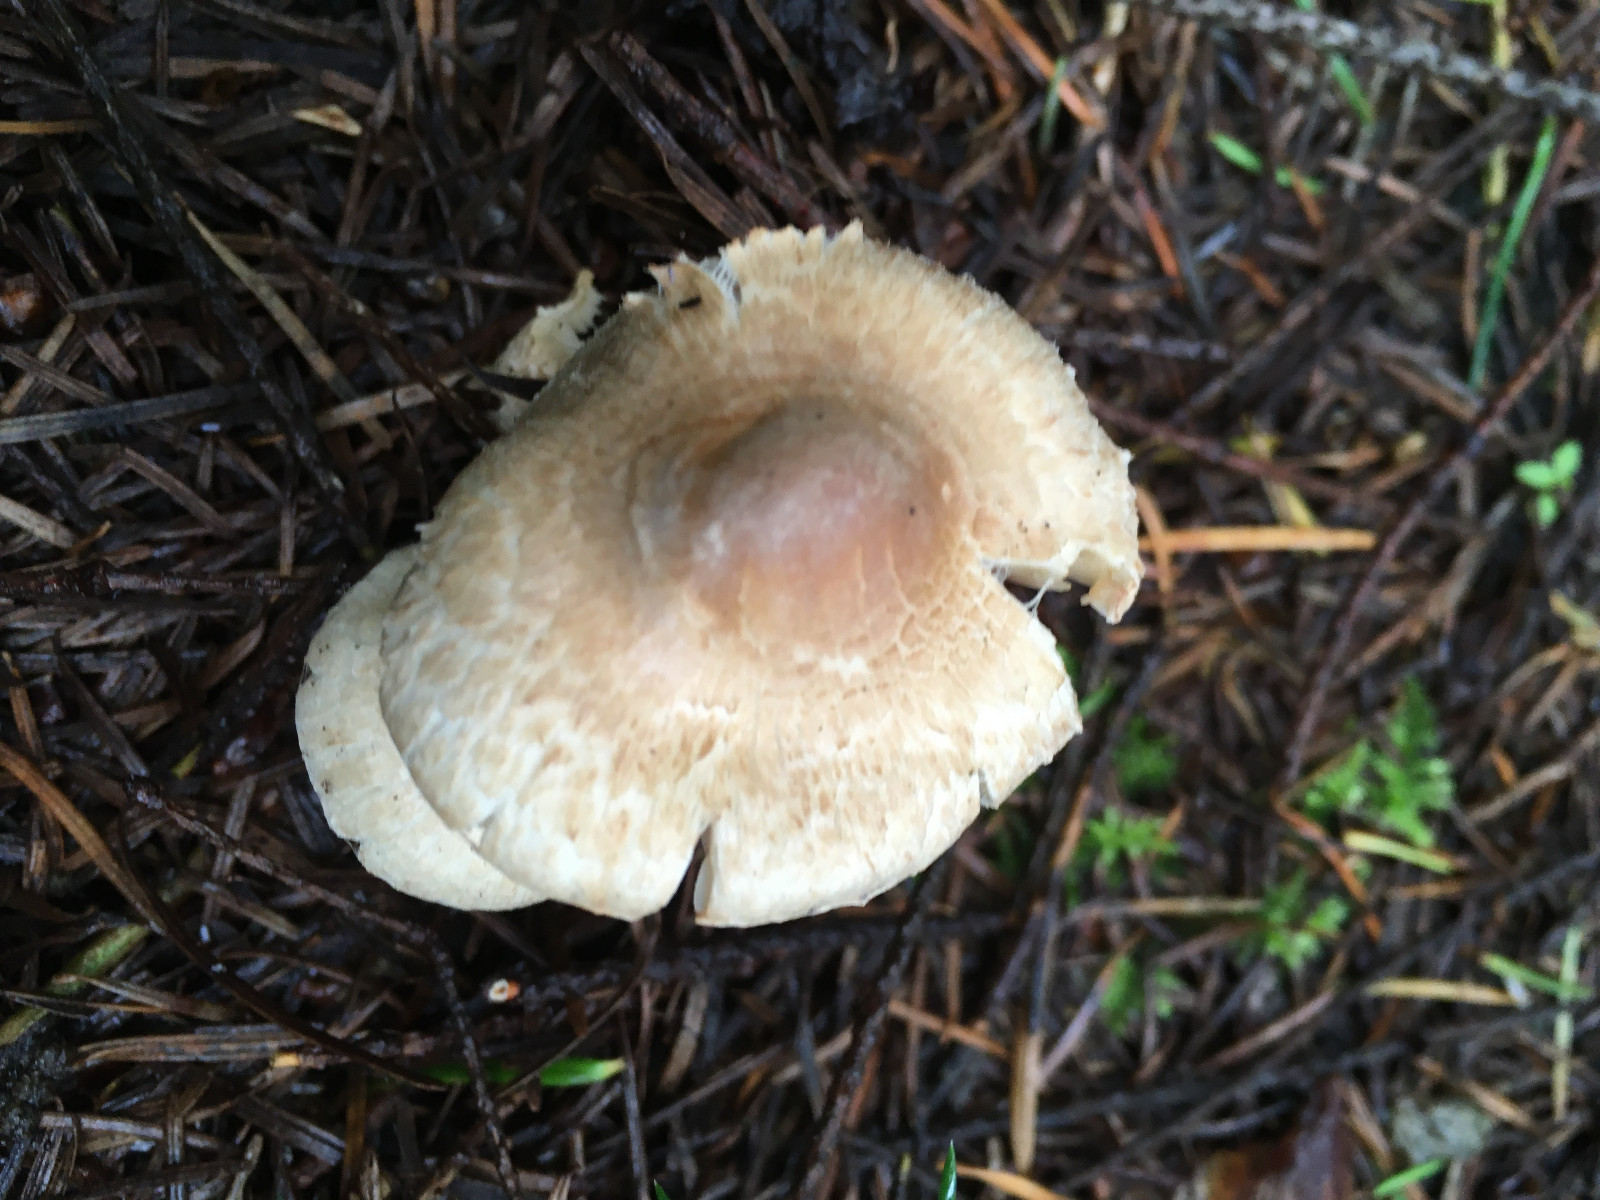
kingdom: Fungi
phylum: Basidiomycota
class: Agaricomycetes
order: Agaricales
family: Inocybaceae
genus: Inocybe
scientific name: Inocybe sindonia
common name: bleg trævlhat
